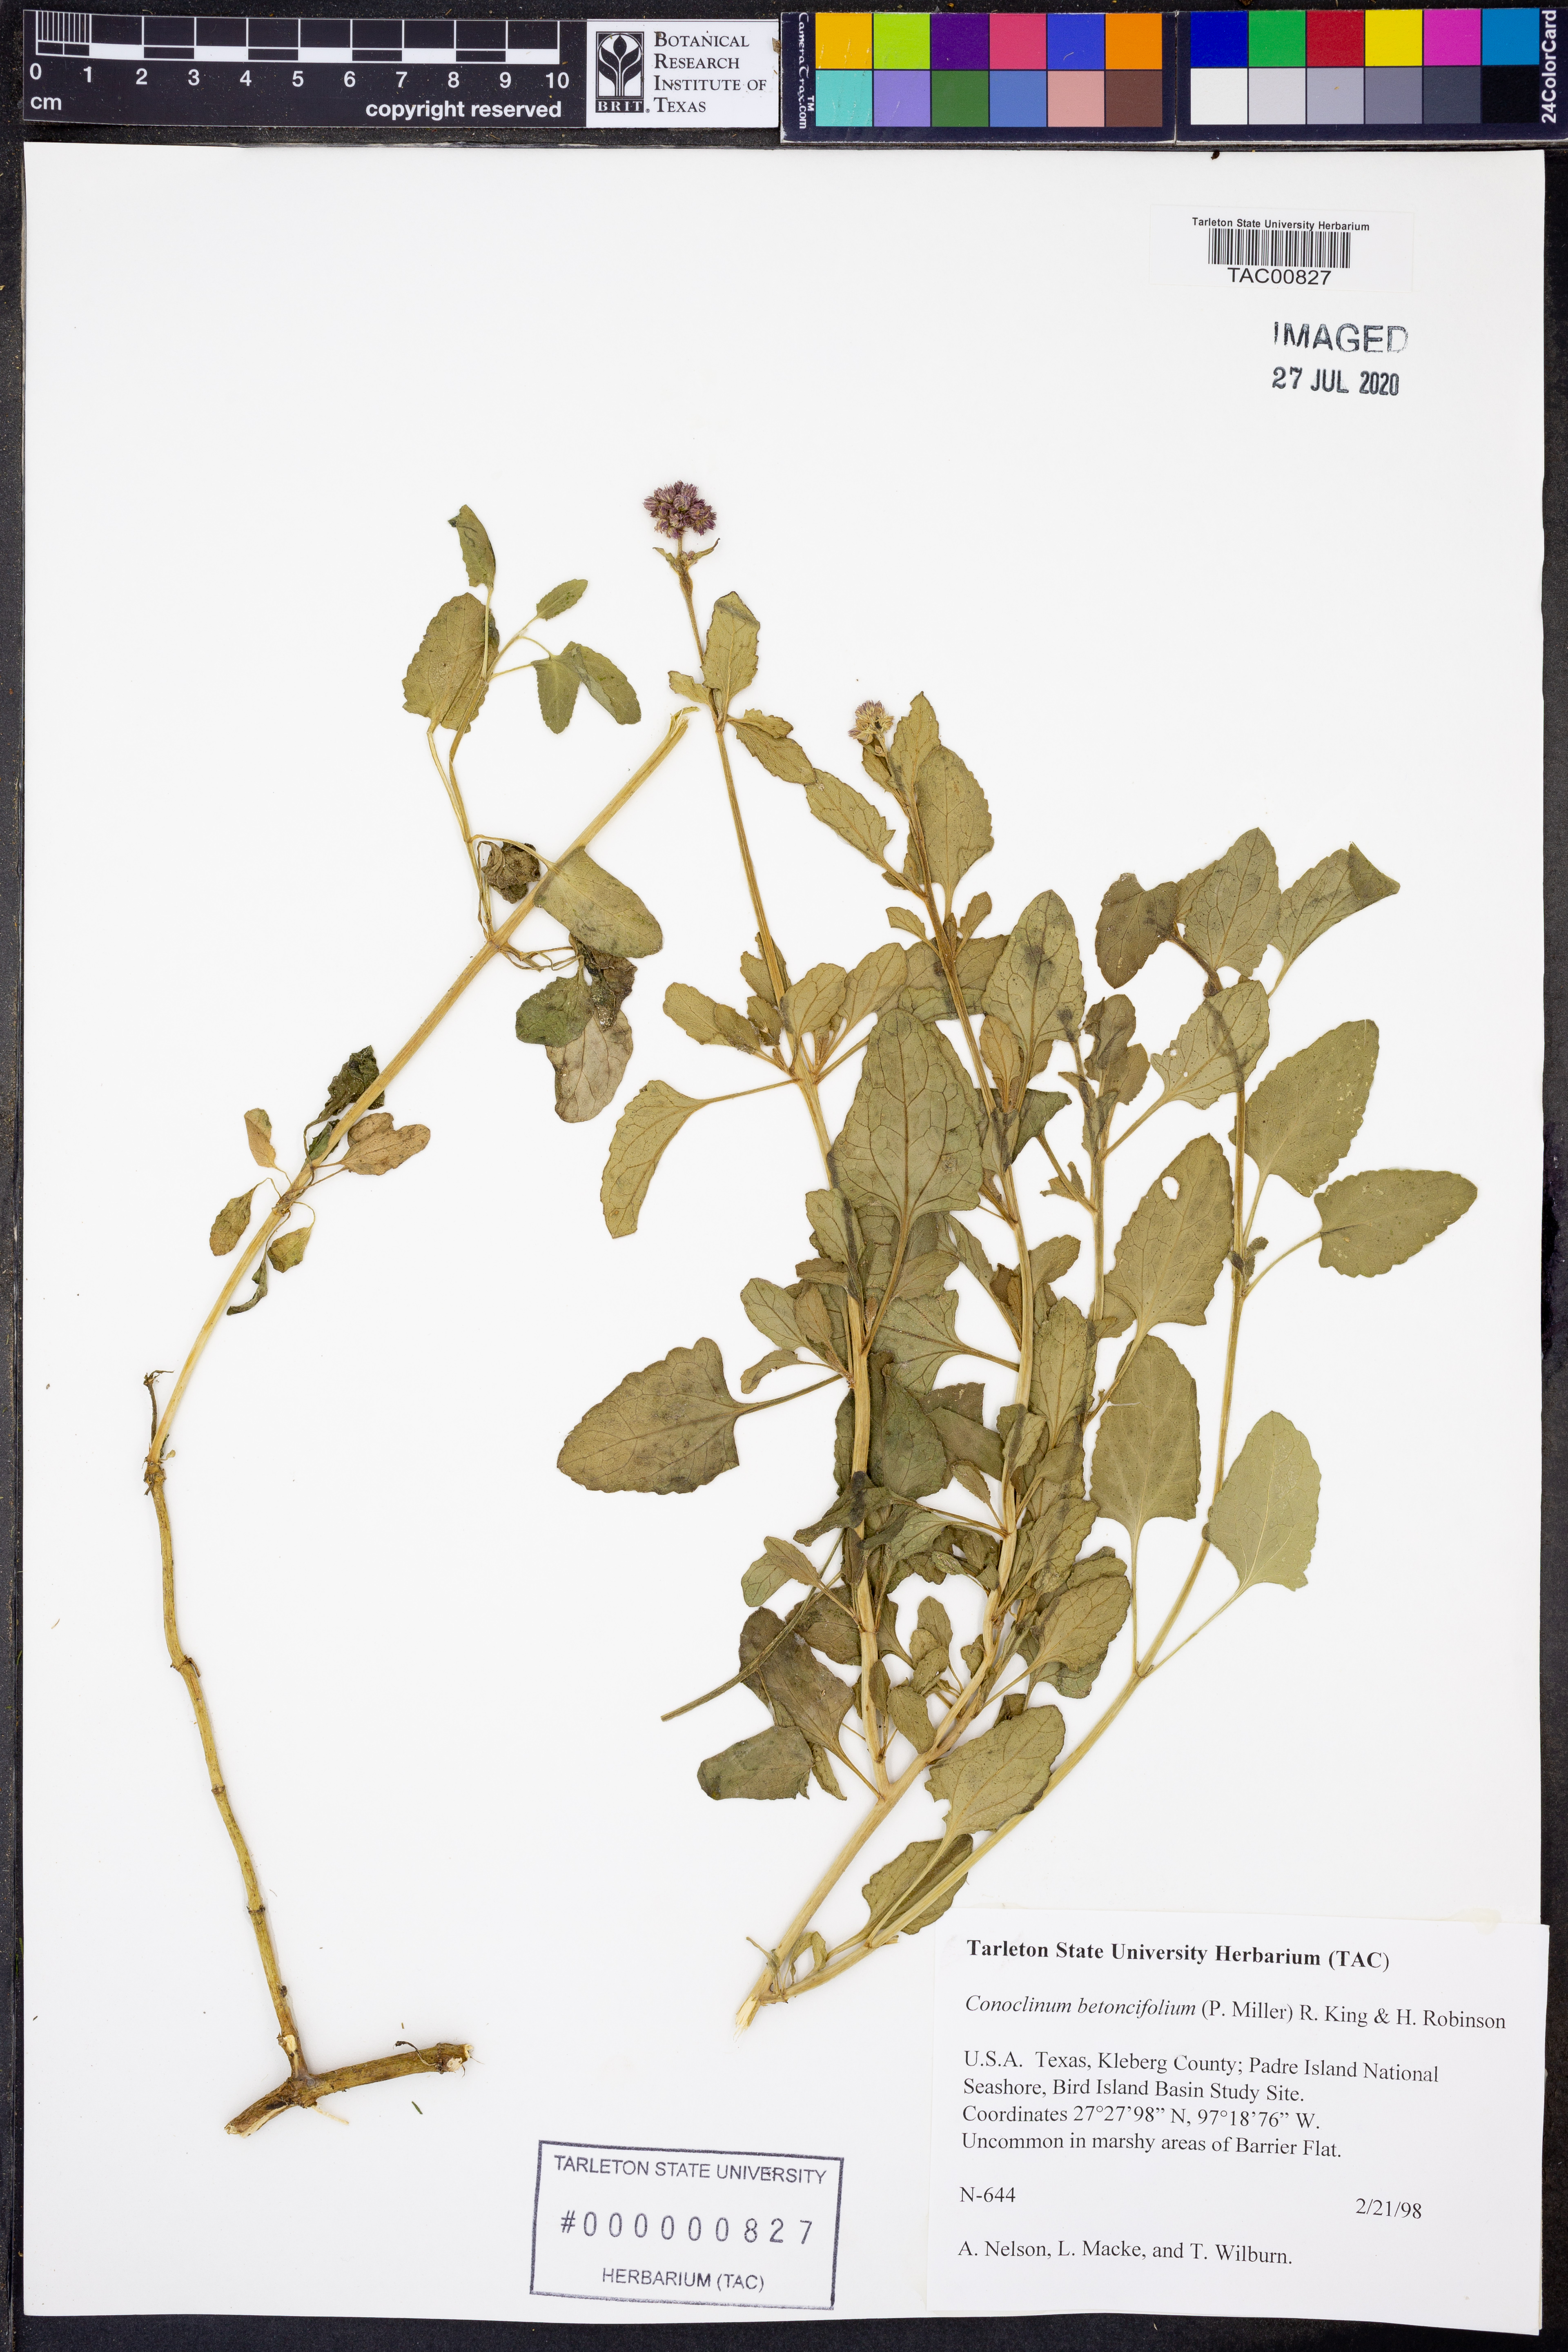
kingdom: Plantae
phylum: Tracheophyta
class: Magnoliopsida
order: Asterales
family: Asteraceae
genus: Conoclinium
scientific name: Conoclinium betonicifolium
